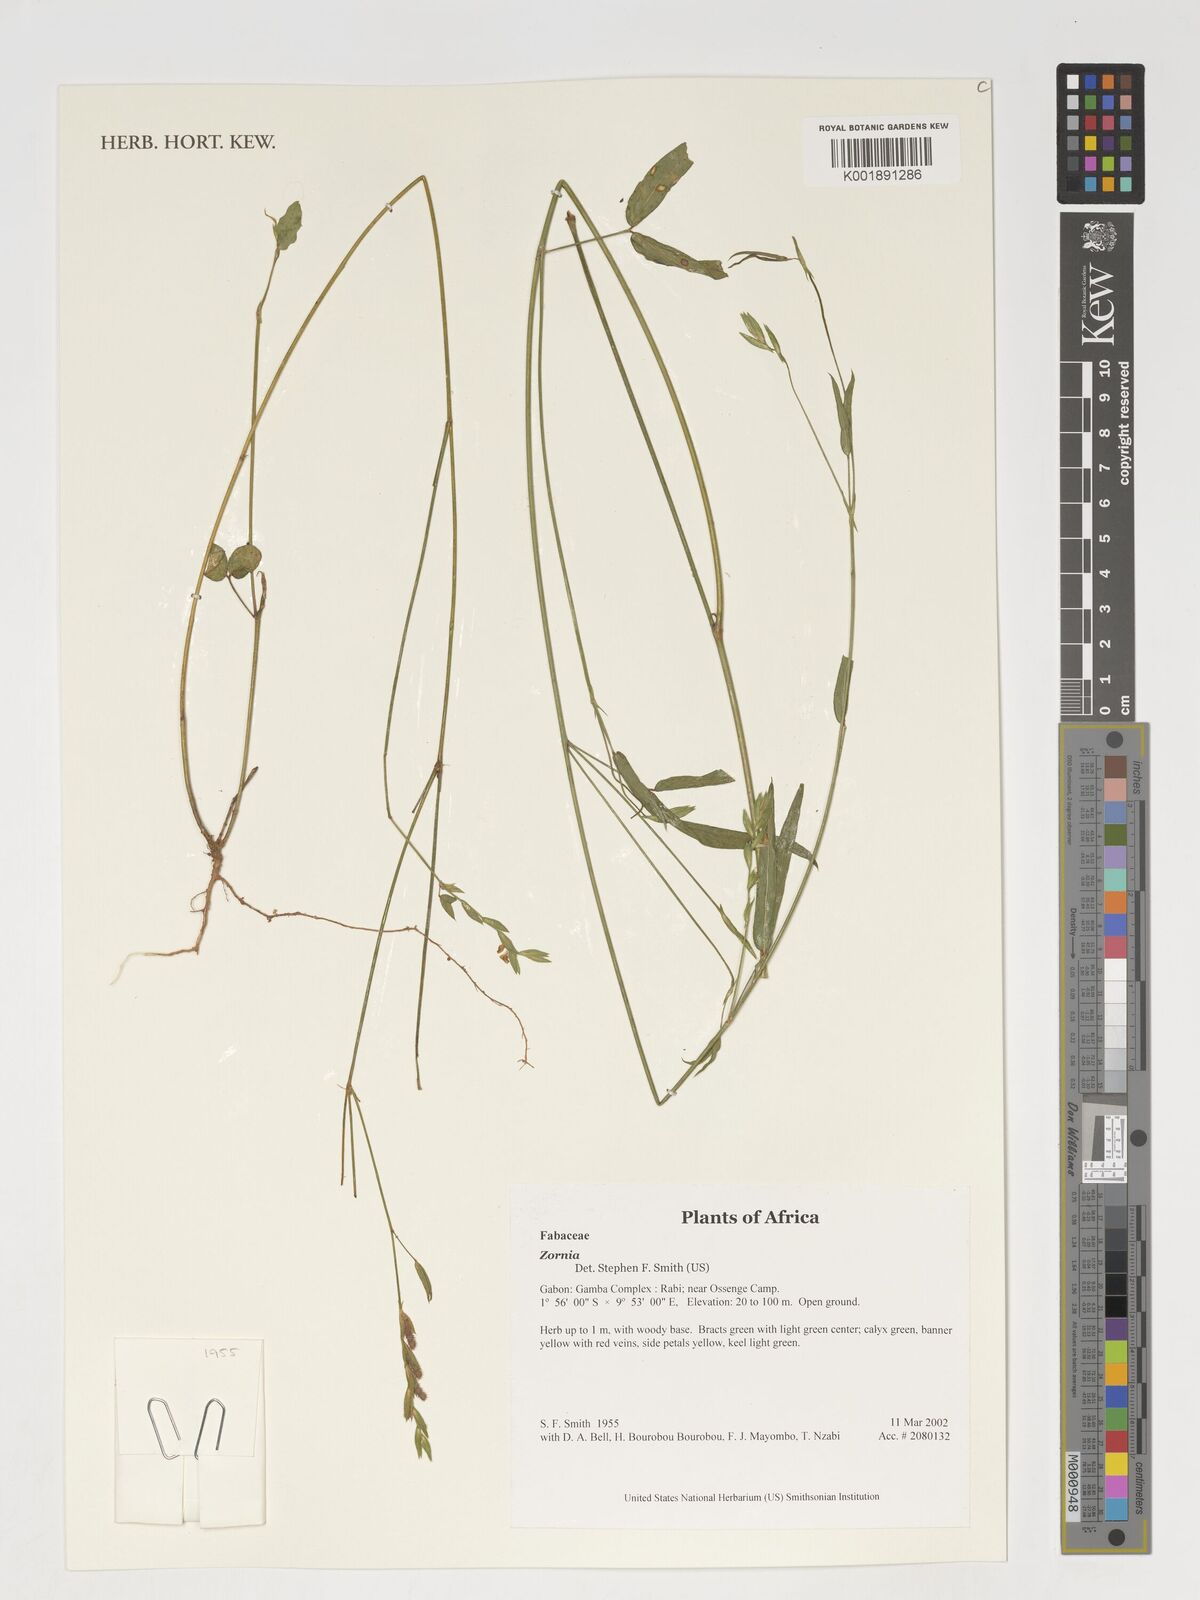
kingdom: Plantae
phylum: Tracheophyta
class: Magnoliopsida
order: Fabales
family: Fabaceae
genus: Zornia
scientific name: Zornia
